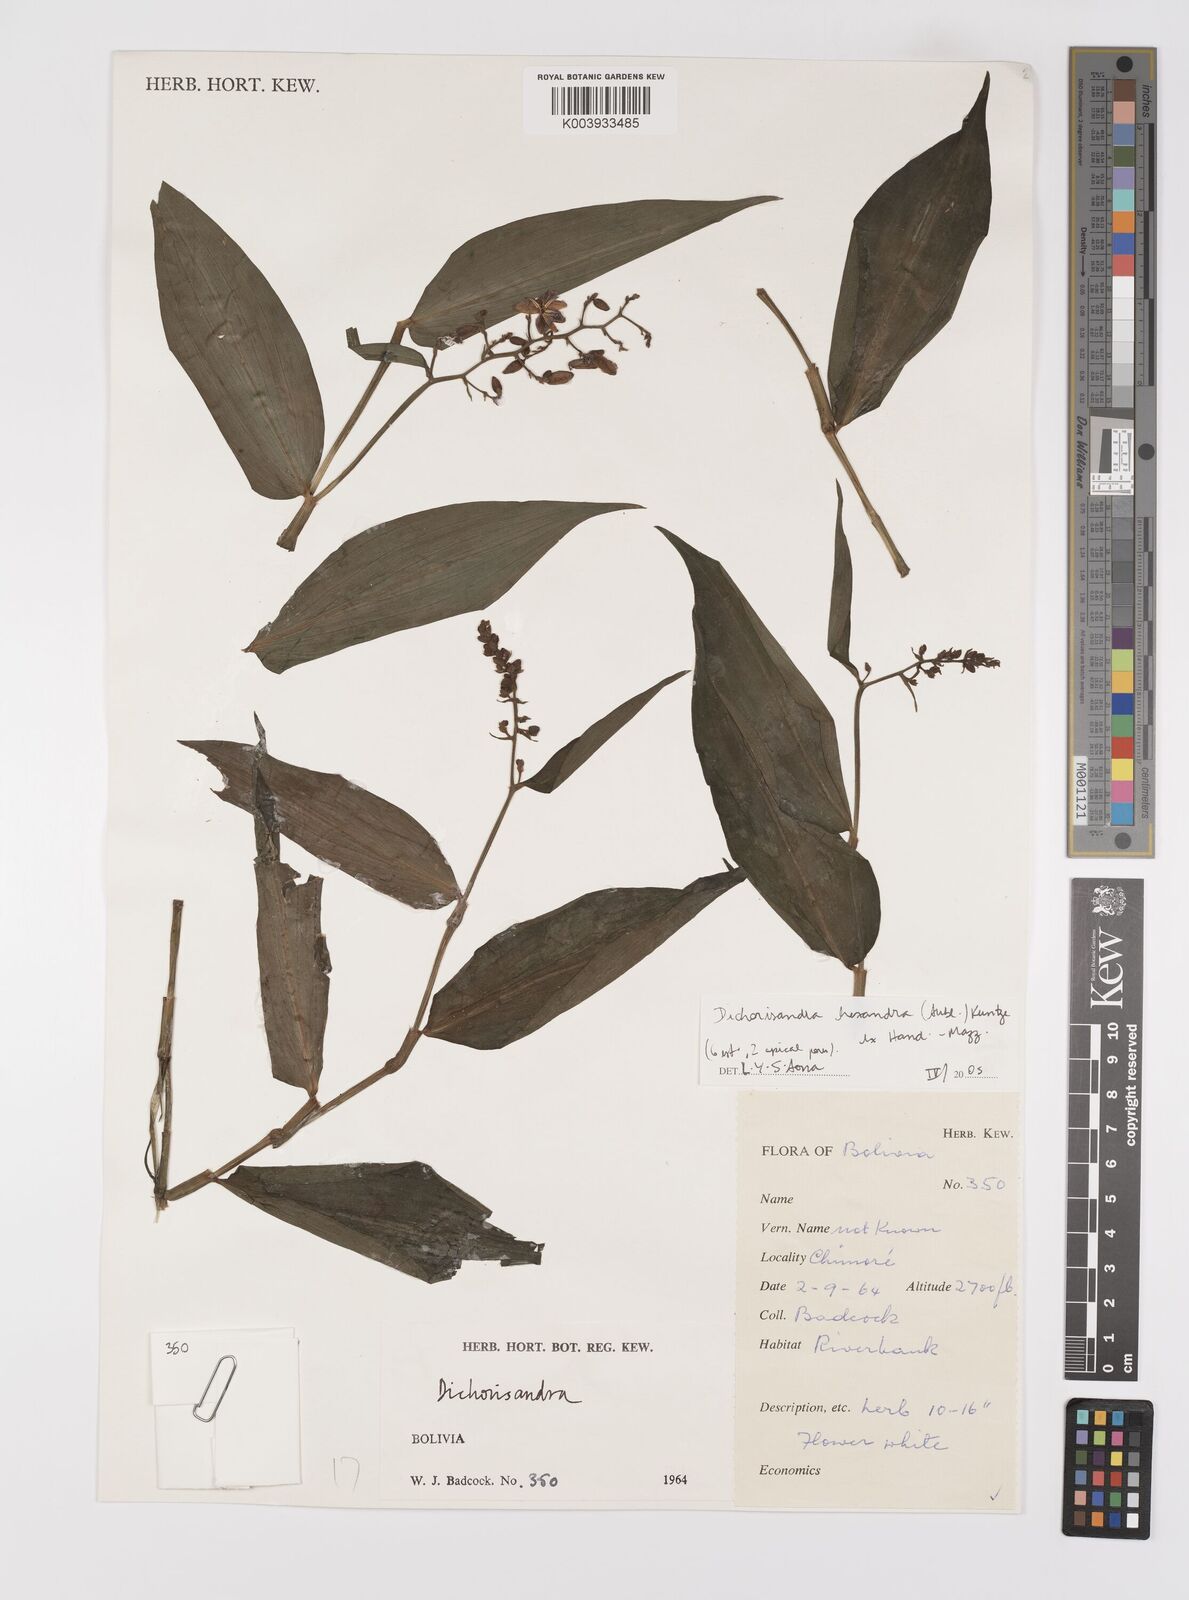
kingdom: Plantae
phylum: Tracheophyta
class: Liliopsida
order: Commelinales
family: Commelinaceae
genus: Dichorisandra
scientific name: Dichorisandra hexandra
